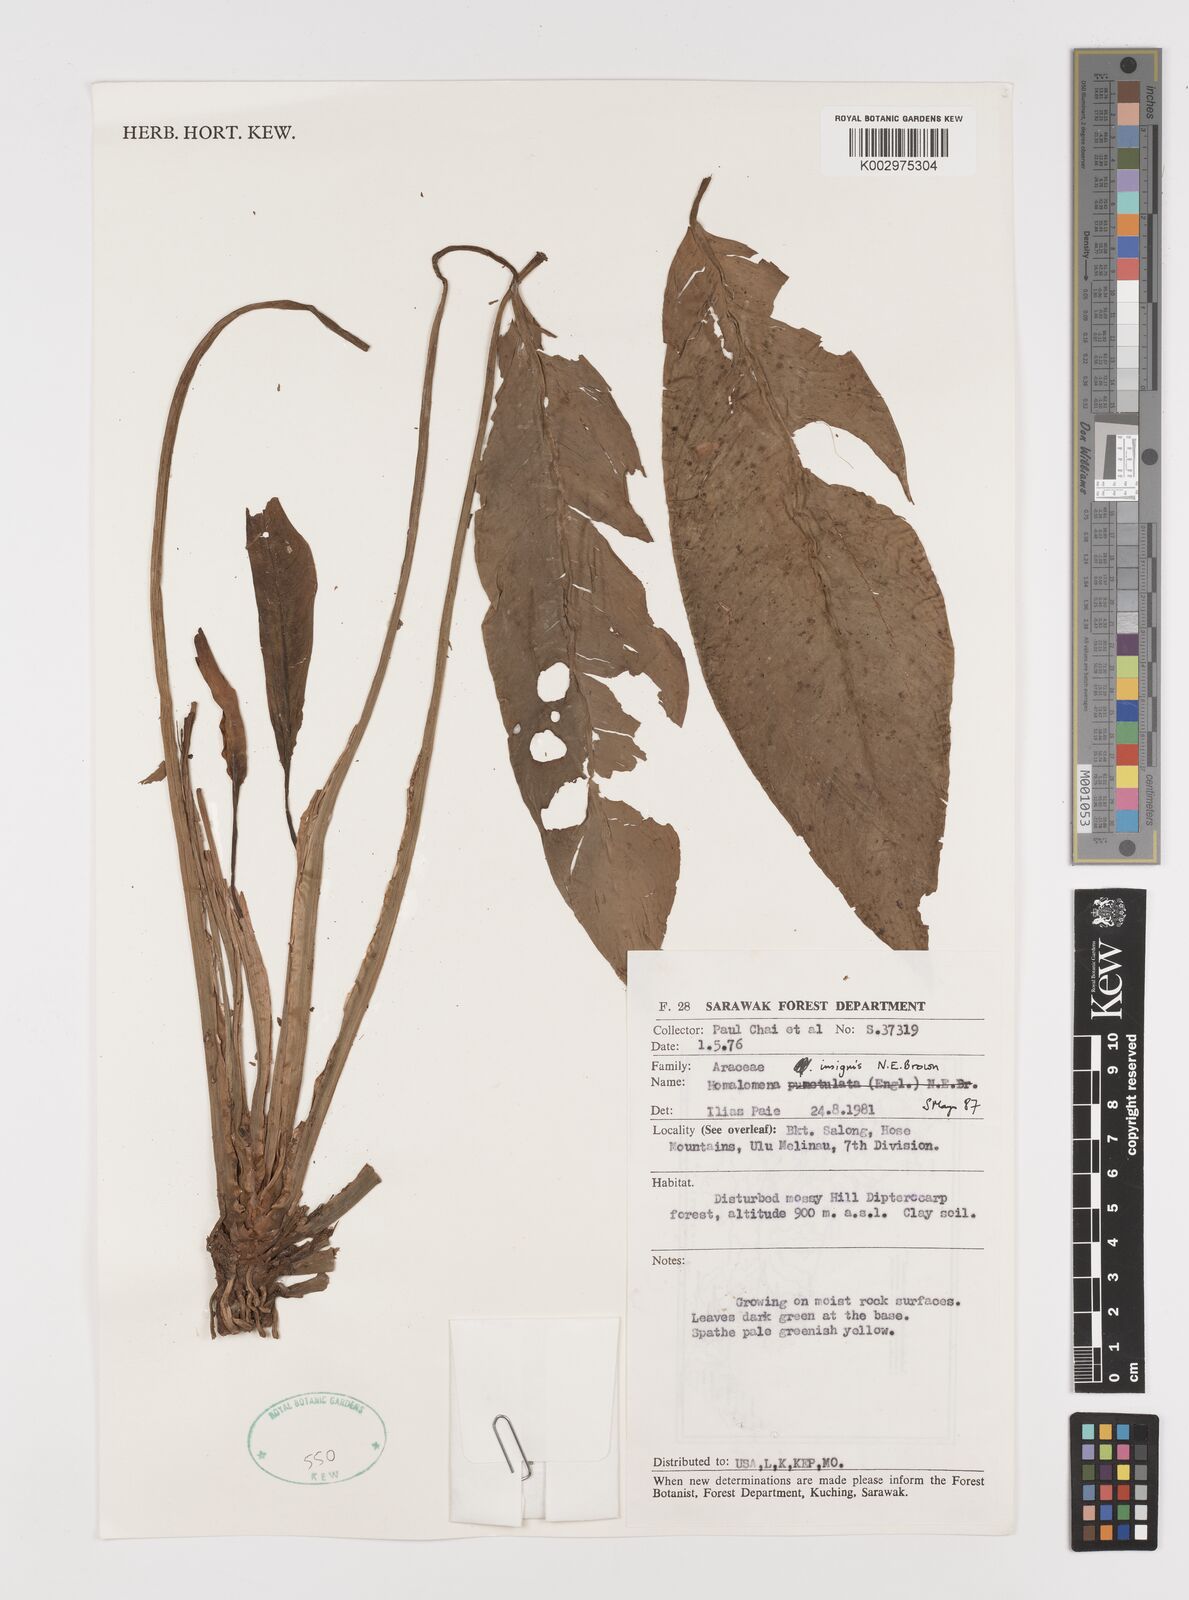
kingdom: Plantae
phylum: Tracheophyta
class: Liliopsida
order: Alismatales
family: Araceae
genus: Homalomena
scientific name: Homalomena punctulata
